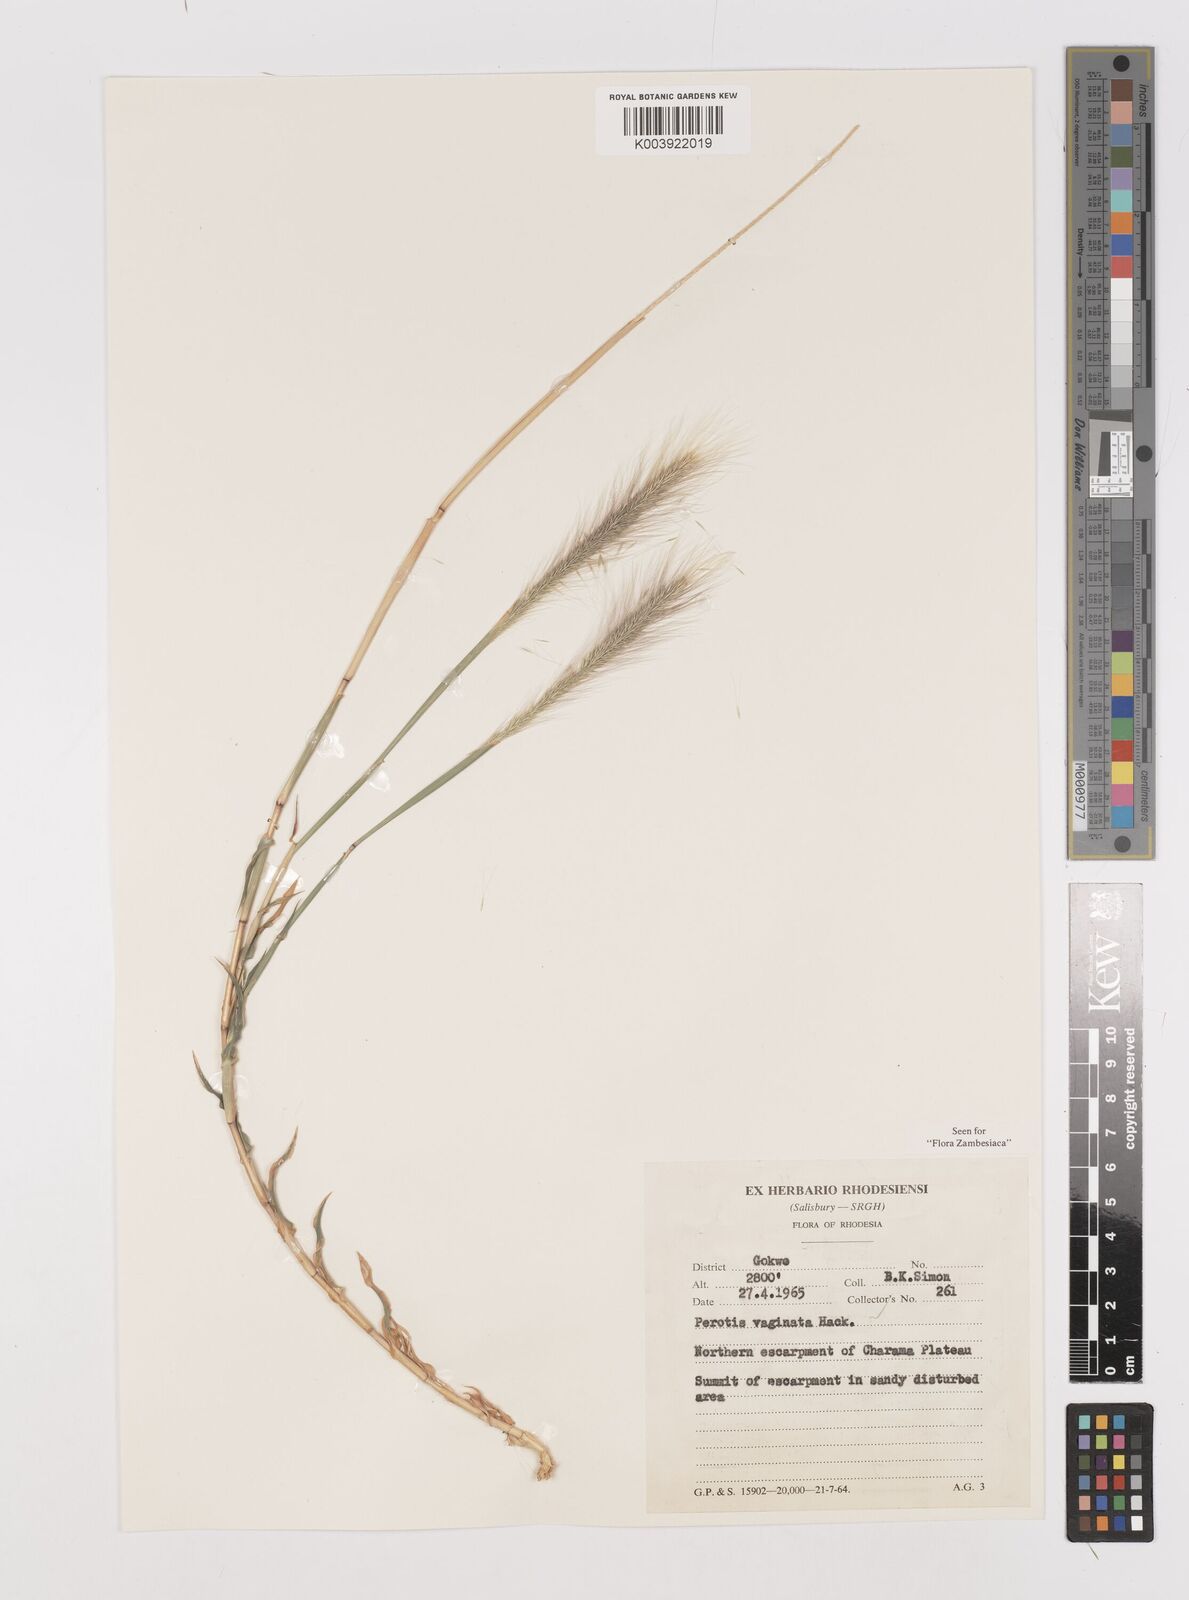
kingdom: Plantae
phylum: Tracheophyta
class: Liliopsida
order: Poales
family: Poaceae
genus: Perotis
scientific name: Perotis vaginata
